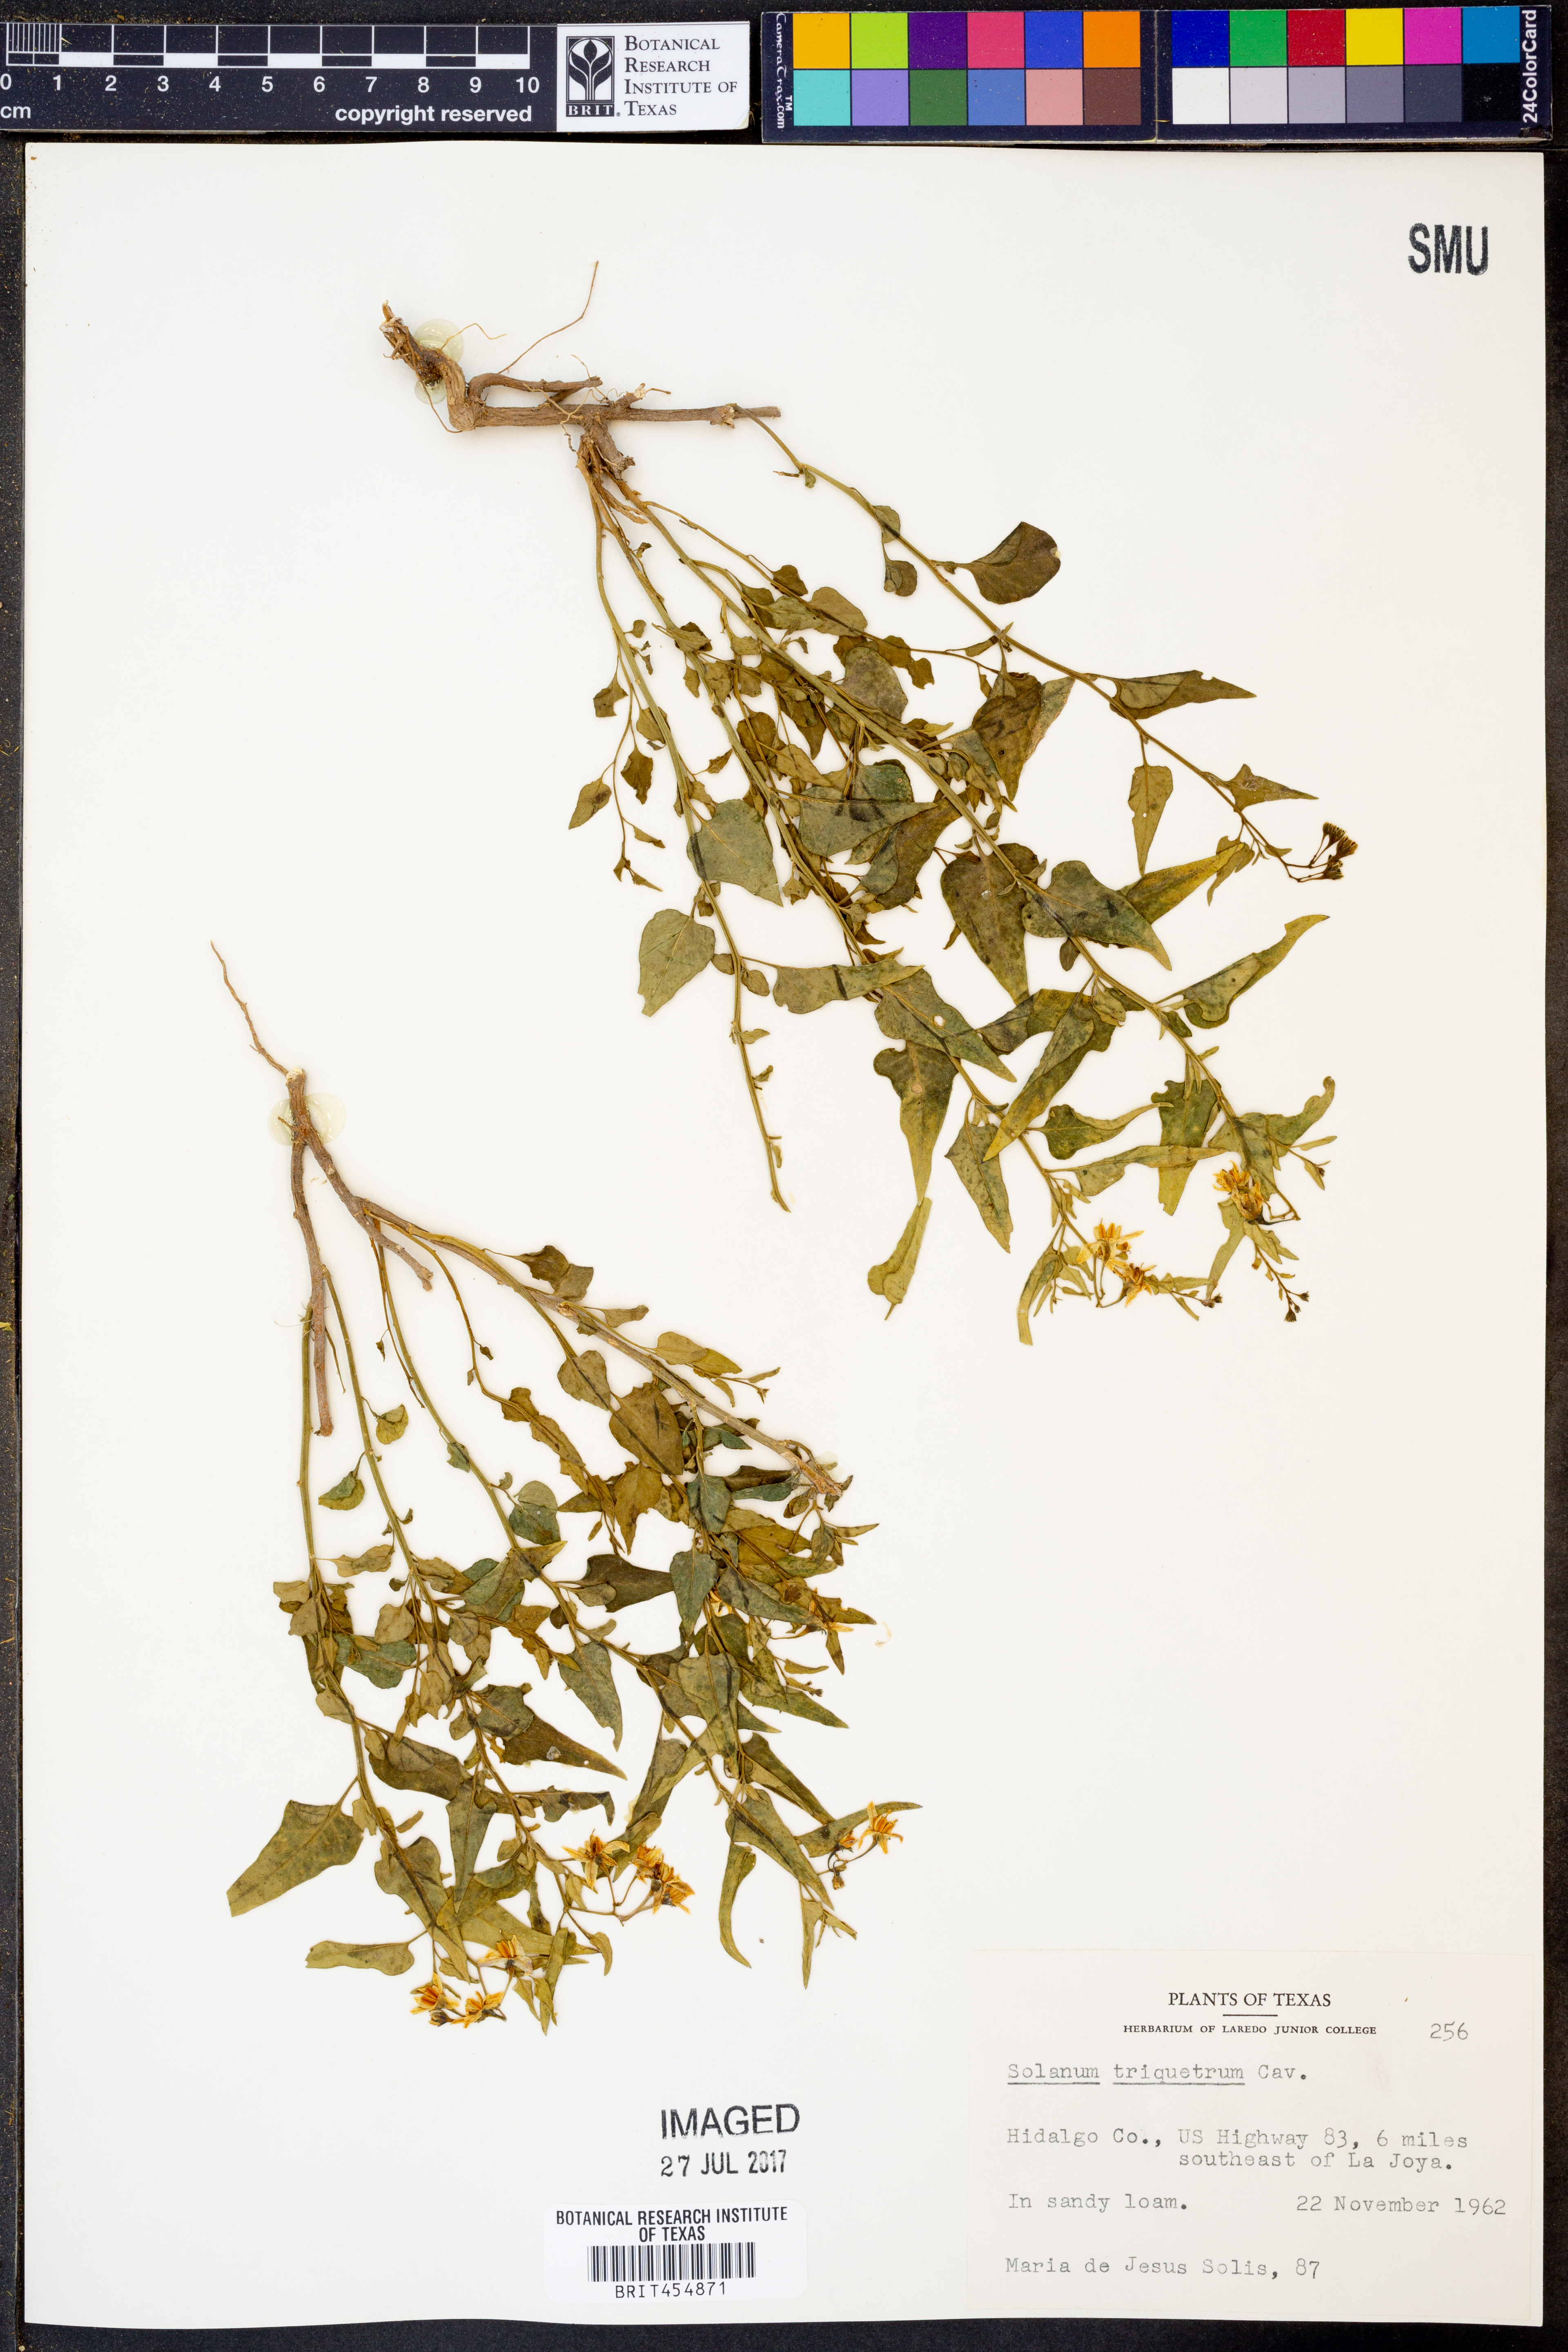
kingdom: Plantae
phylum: Tracheophyta
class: Magnoliopsida
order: Solanales
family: Solanaceae
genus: Solanum
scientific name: Solanum triquetrum
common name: Texas nightshade
